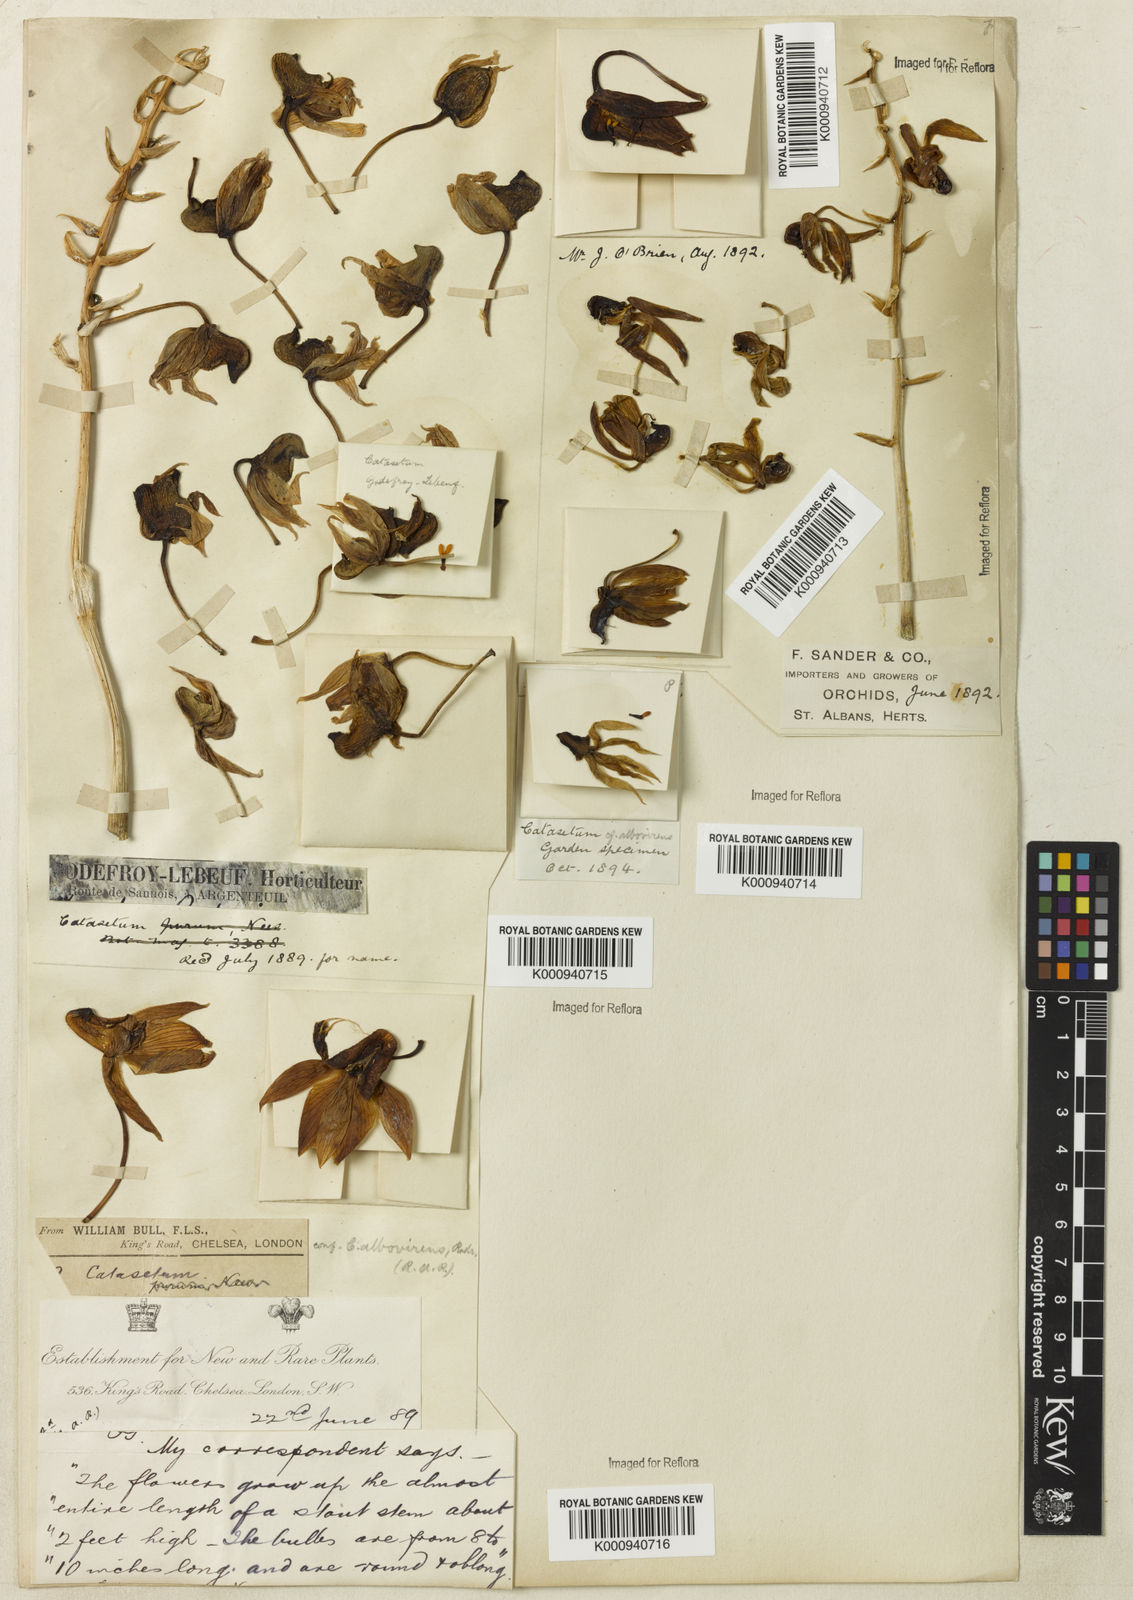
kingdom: Plantae
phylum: Tracheophyta
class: Liliopsida
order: Asparagales
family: Orchidaceae
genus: Catasetum
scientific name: Catasetum uncatum
